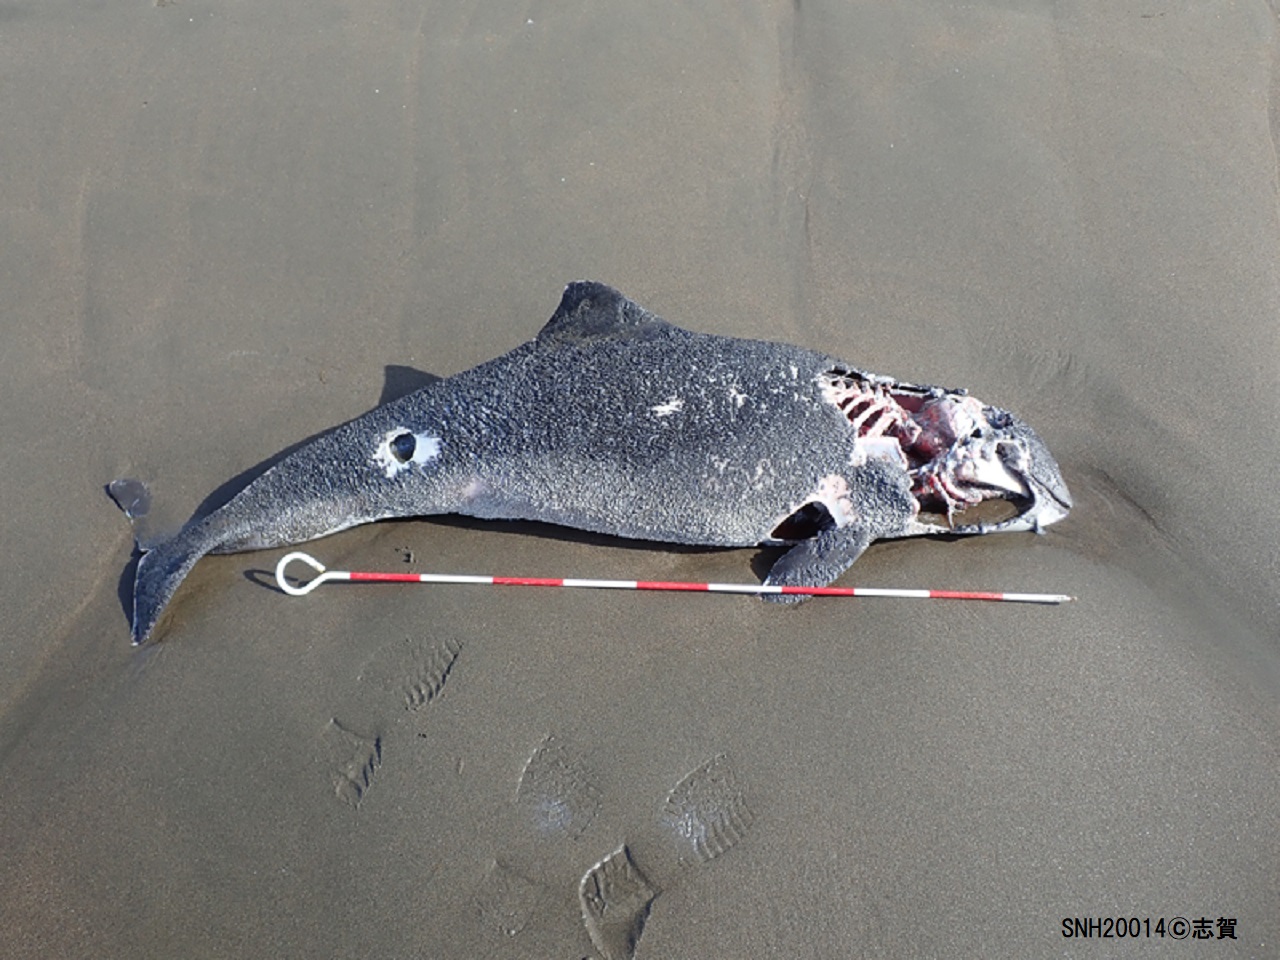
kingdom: Animalia
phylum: Chordata
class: Mammalia
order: Cetacea
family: Phocoenidae
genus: Phocoena
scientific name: Phocoena phocoena
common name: Harbour porpoise
